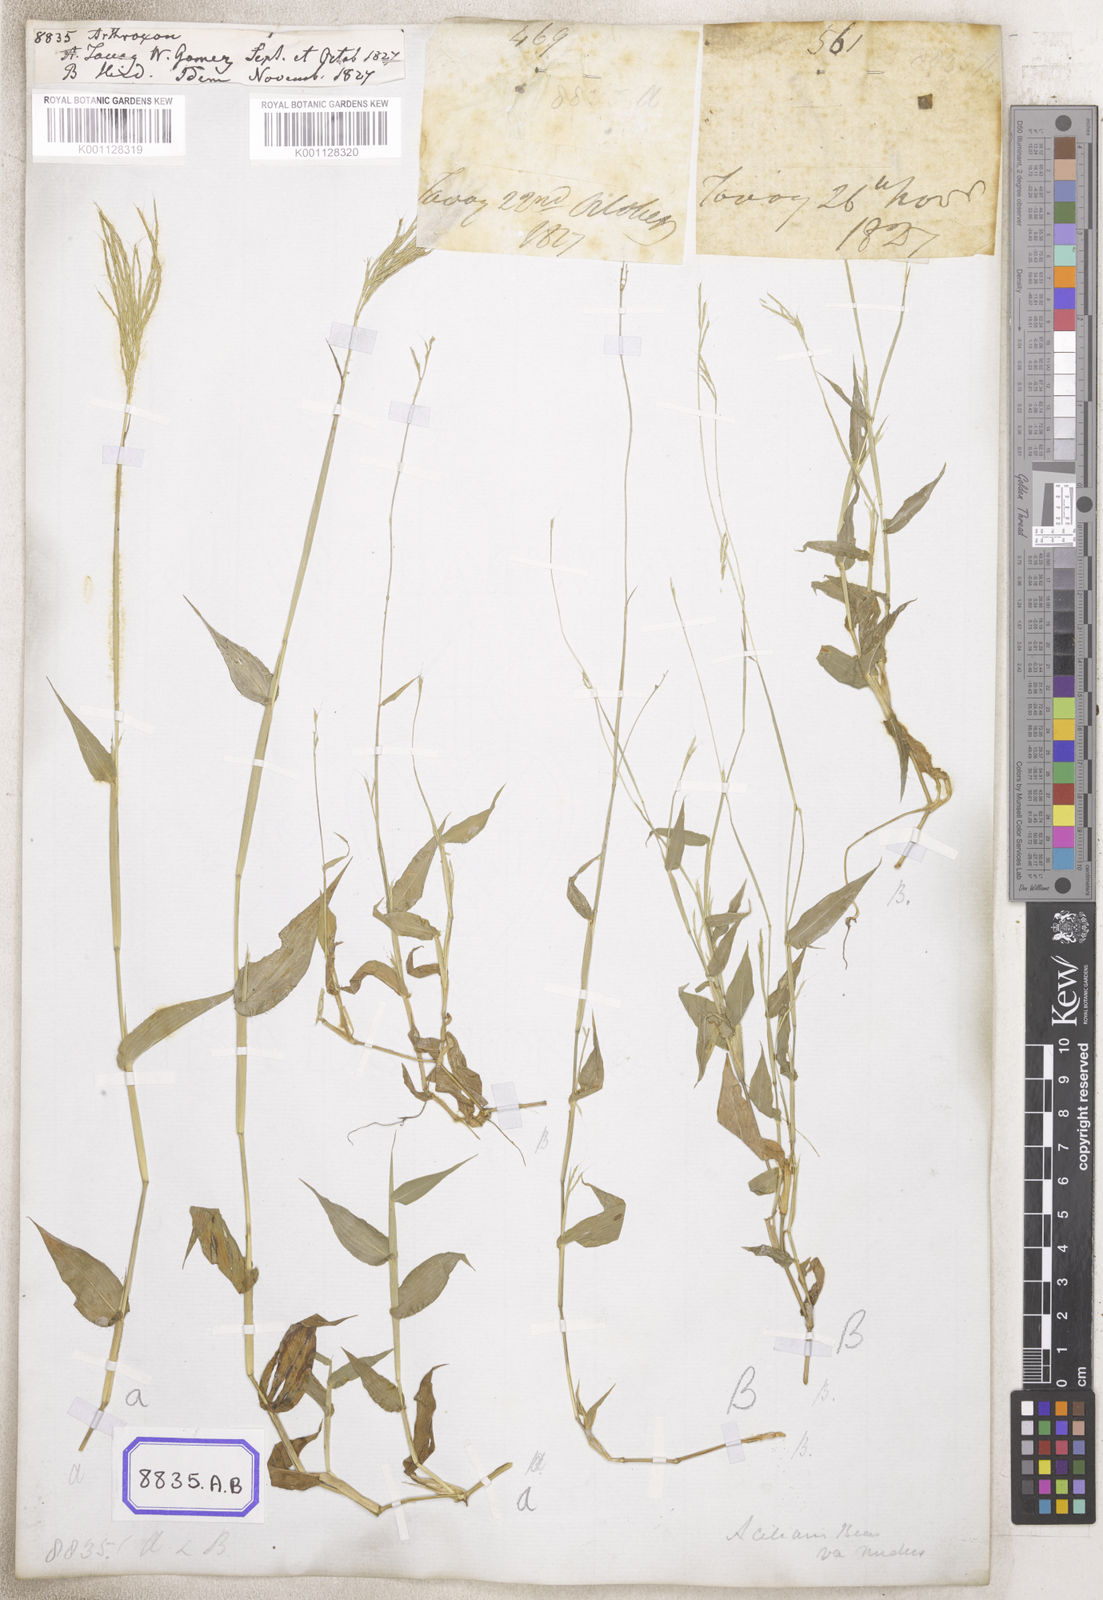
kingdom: Plantae
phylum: Tracheophyta
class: Liliopsida
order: Poales
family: Poaceae
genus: Arthraxon
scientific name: Arthraxon
